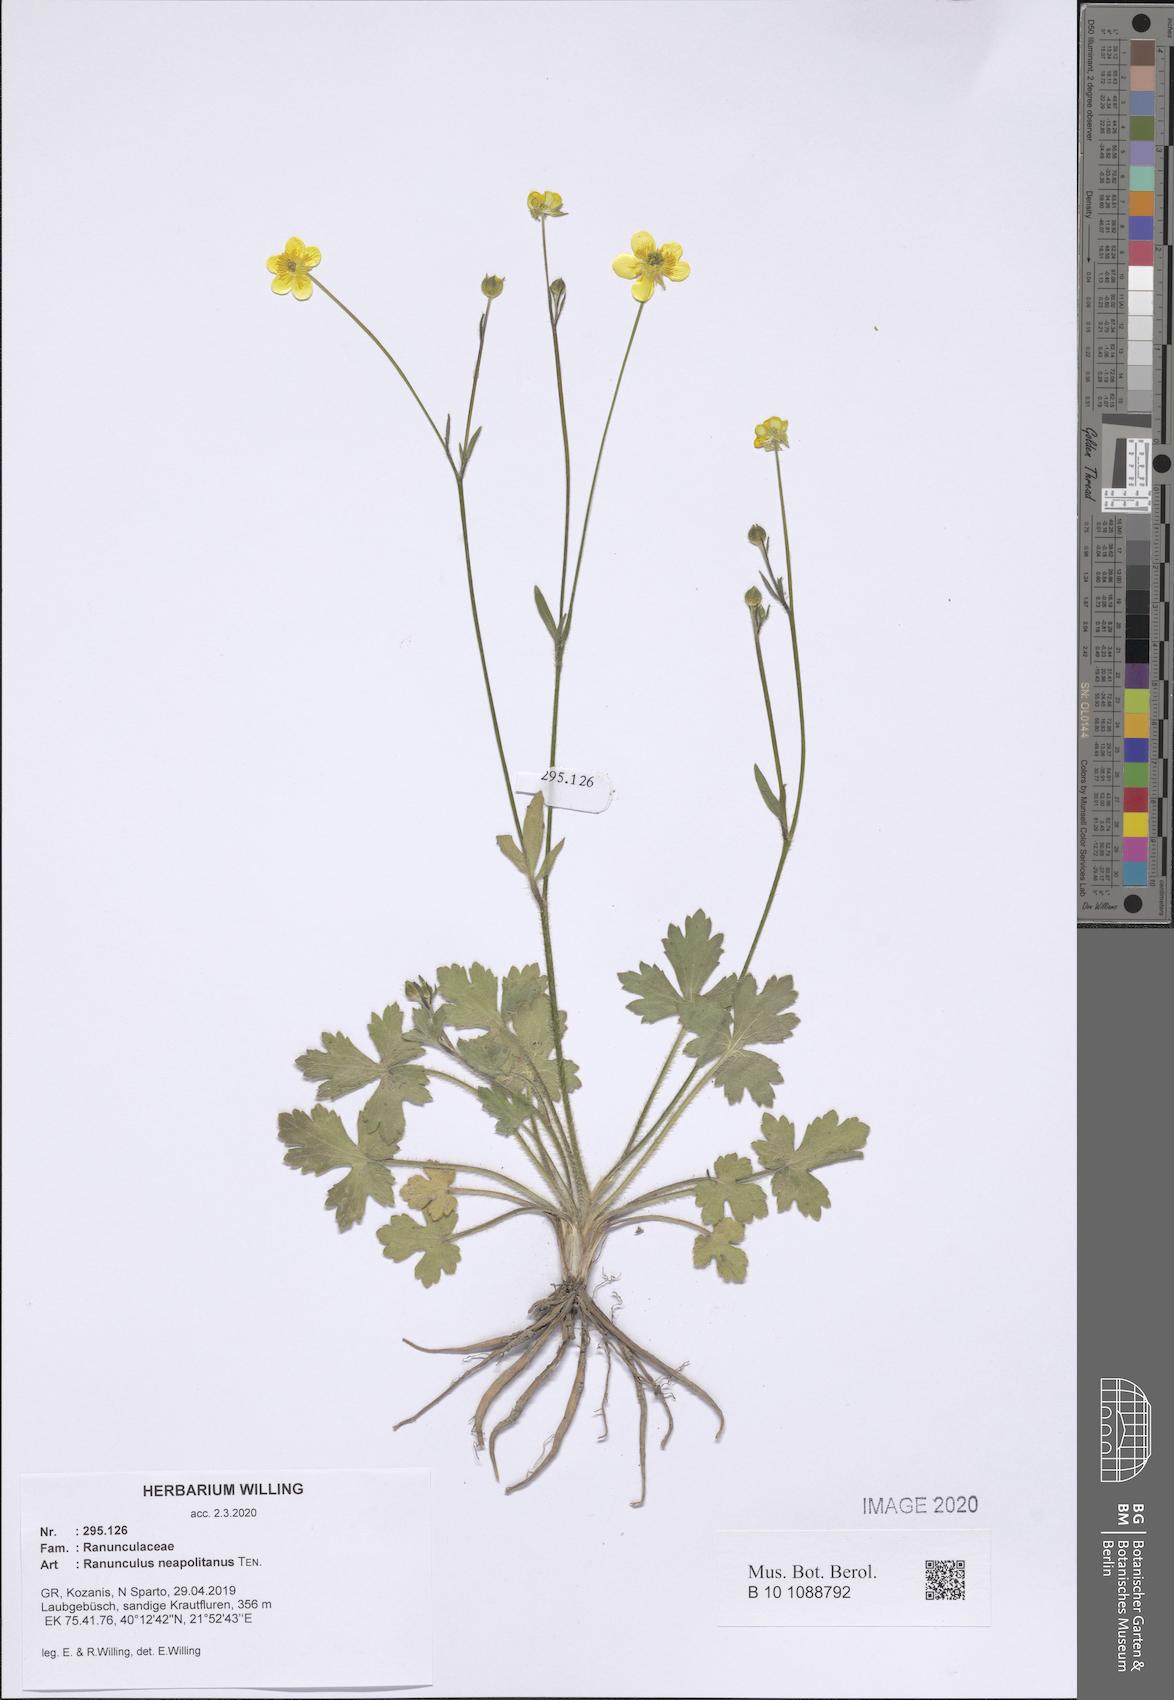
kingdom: Plantae
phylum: Tracheophyta
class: Magnoliopsida
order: Ranunculales
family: Ranunculaceae
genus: Ranunculus
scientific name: Ranunculus neapolitanus
